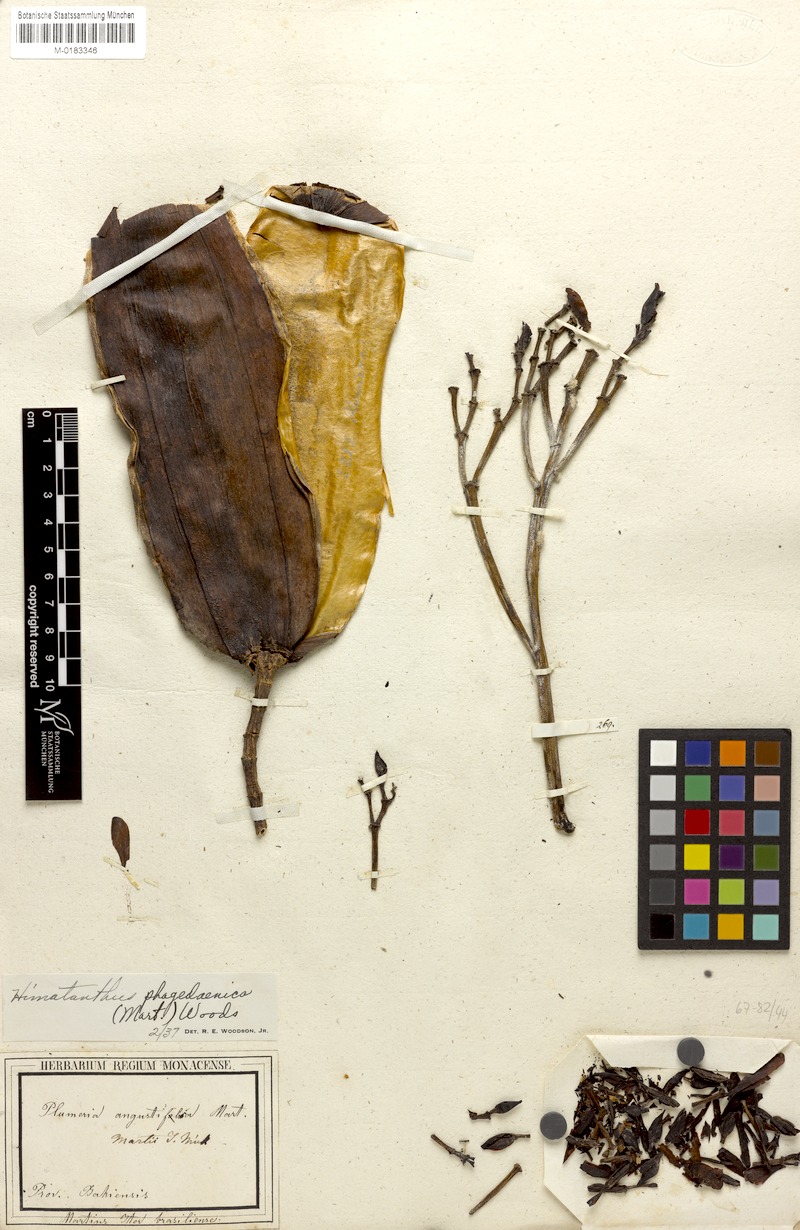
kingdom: Plantae
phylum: Tracheophyta
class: Magnoliopsida
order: Gentianales
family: Apocynaceae
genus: Himatanthus
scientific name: Himatanthus phagedaenicus
